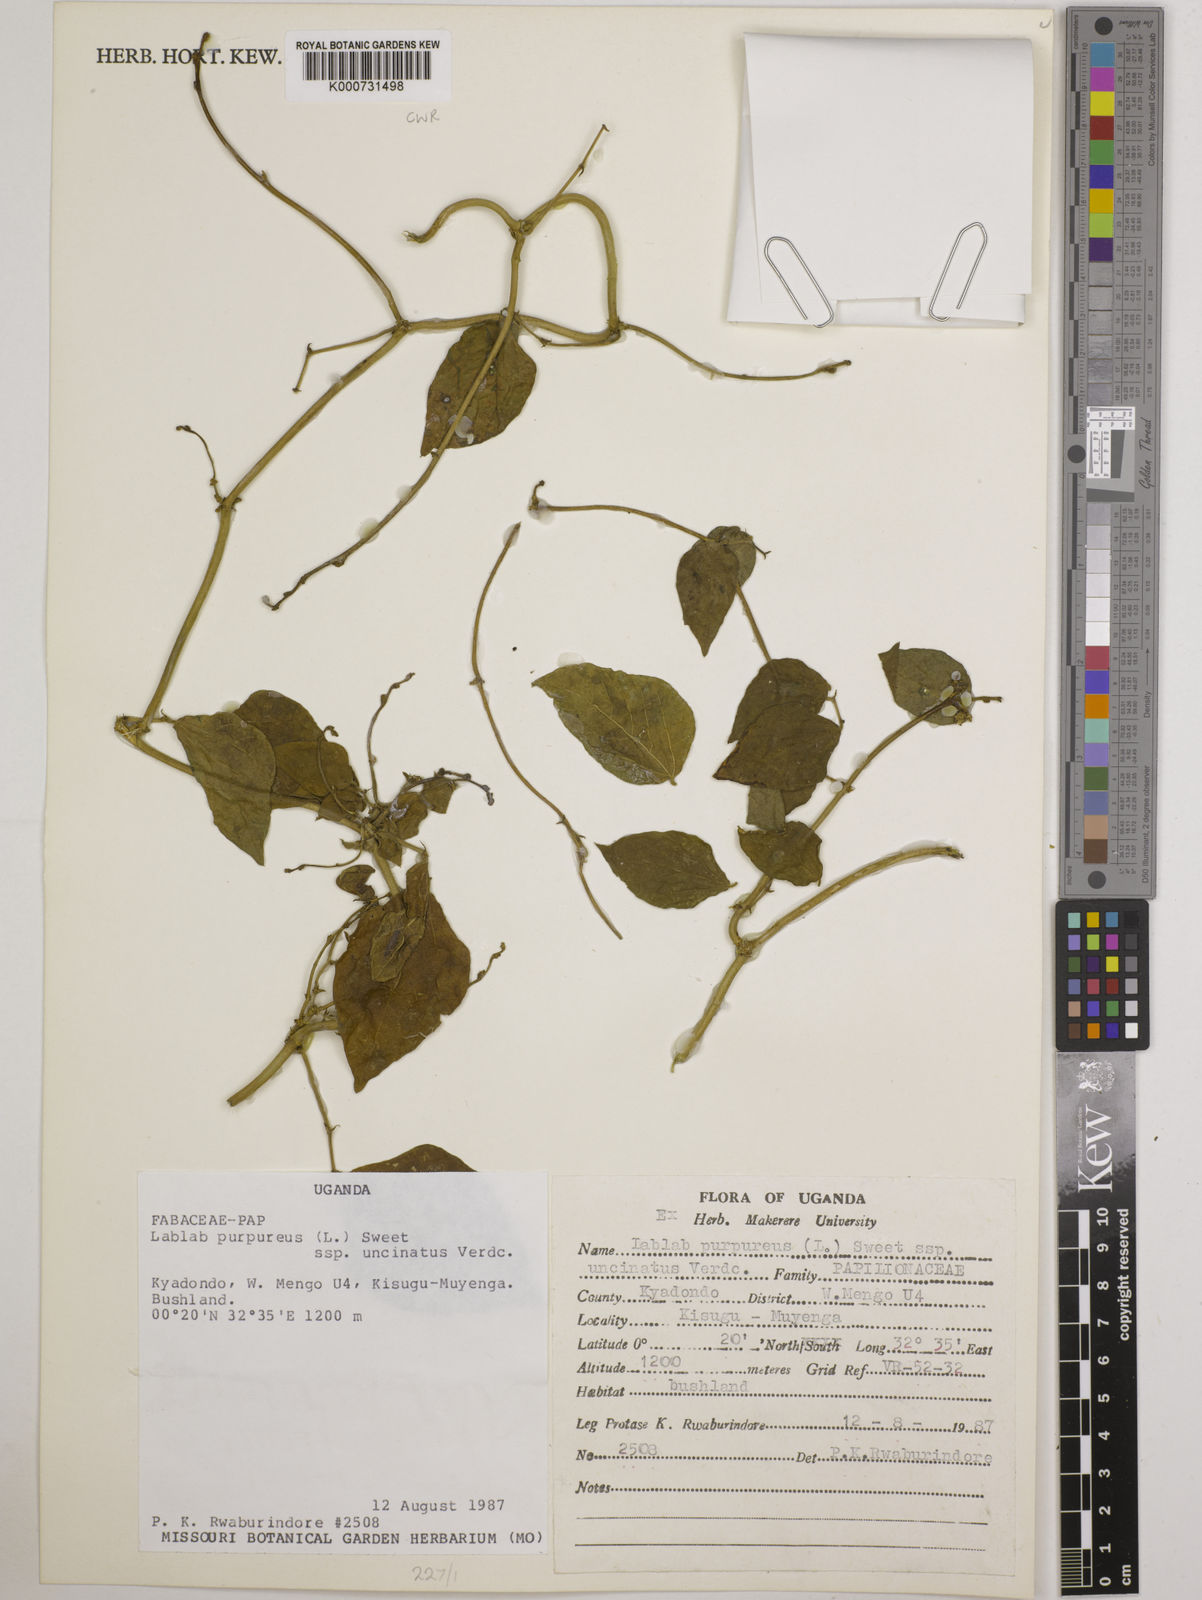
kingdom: Plantae
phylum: Tracheophyta
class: Magnoliopsida
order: Fabales
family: Fabaceae
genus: Lablab
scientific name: Lablab purpureus
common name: Lablab-bean
